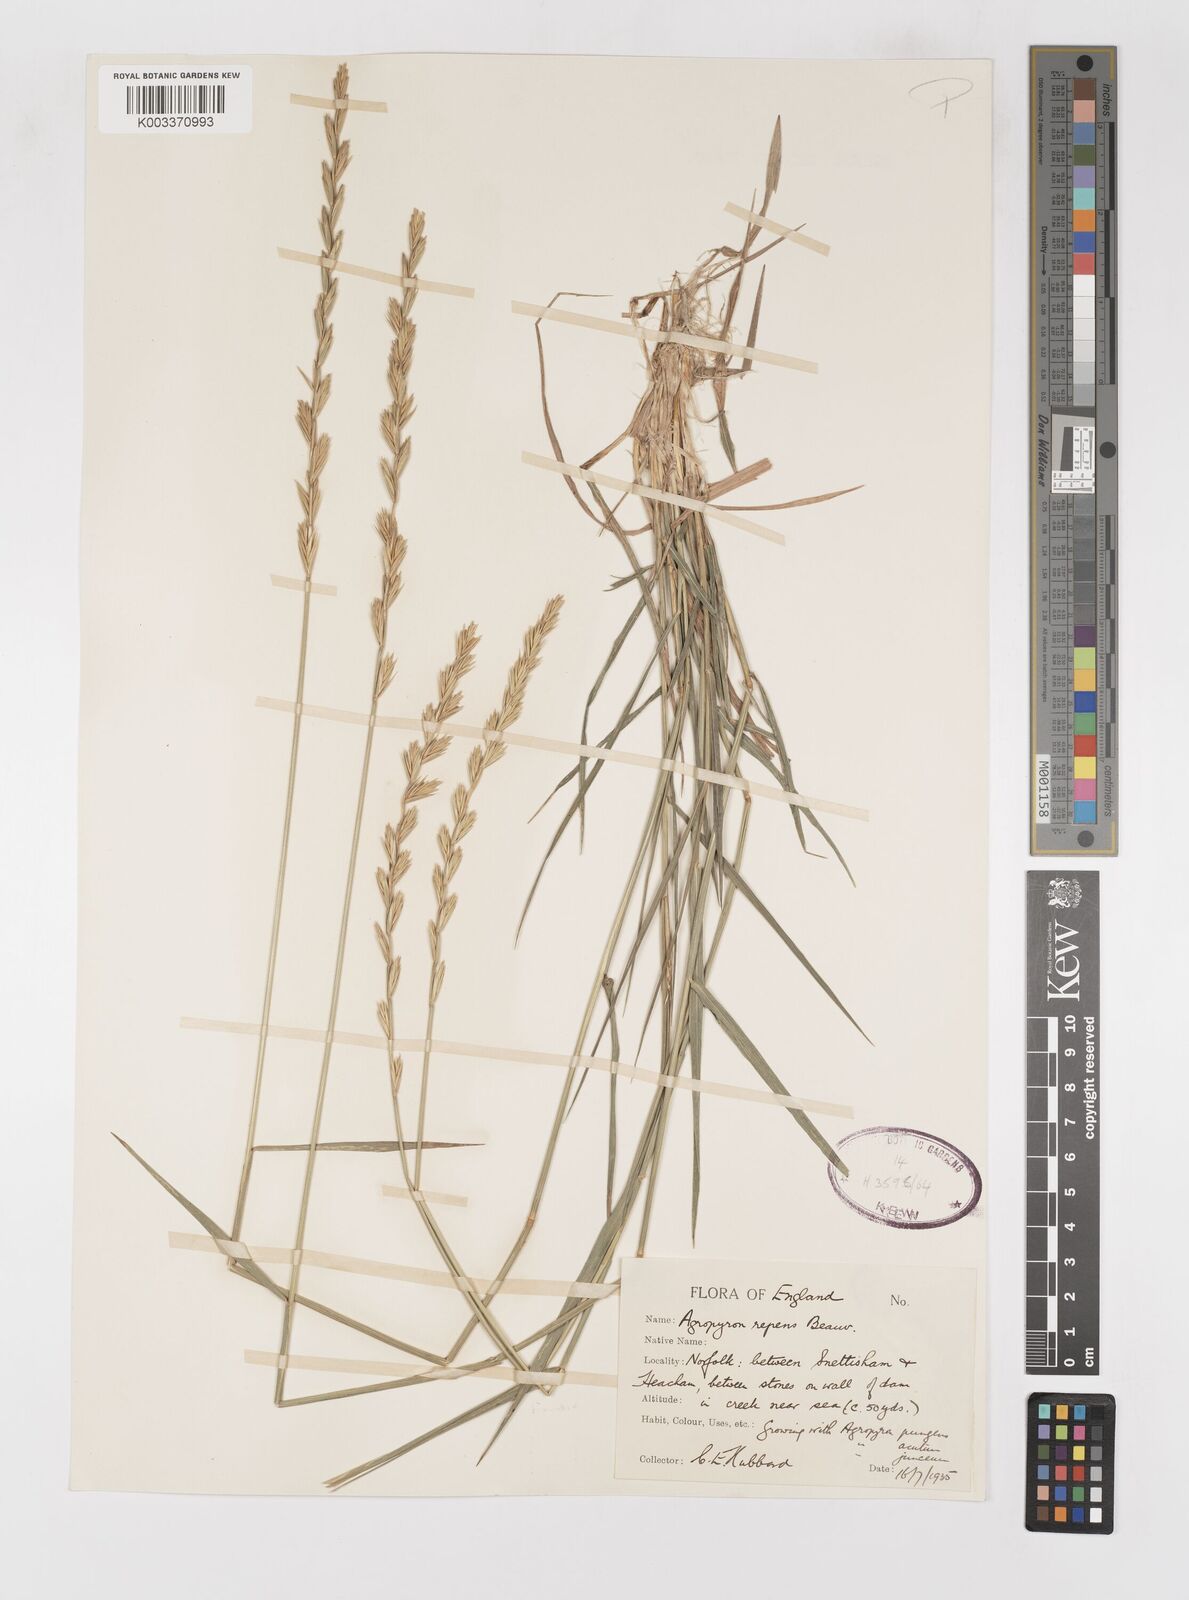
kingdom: Plantae
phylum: Tracheophyta
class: Liliopsida
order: Poales
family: Poaceae
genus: Elymus
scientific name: Elymus repens
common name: Quackgrass
